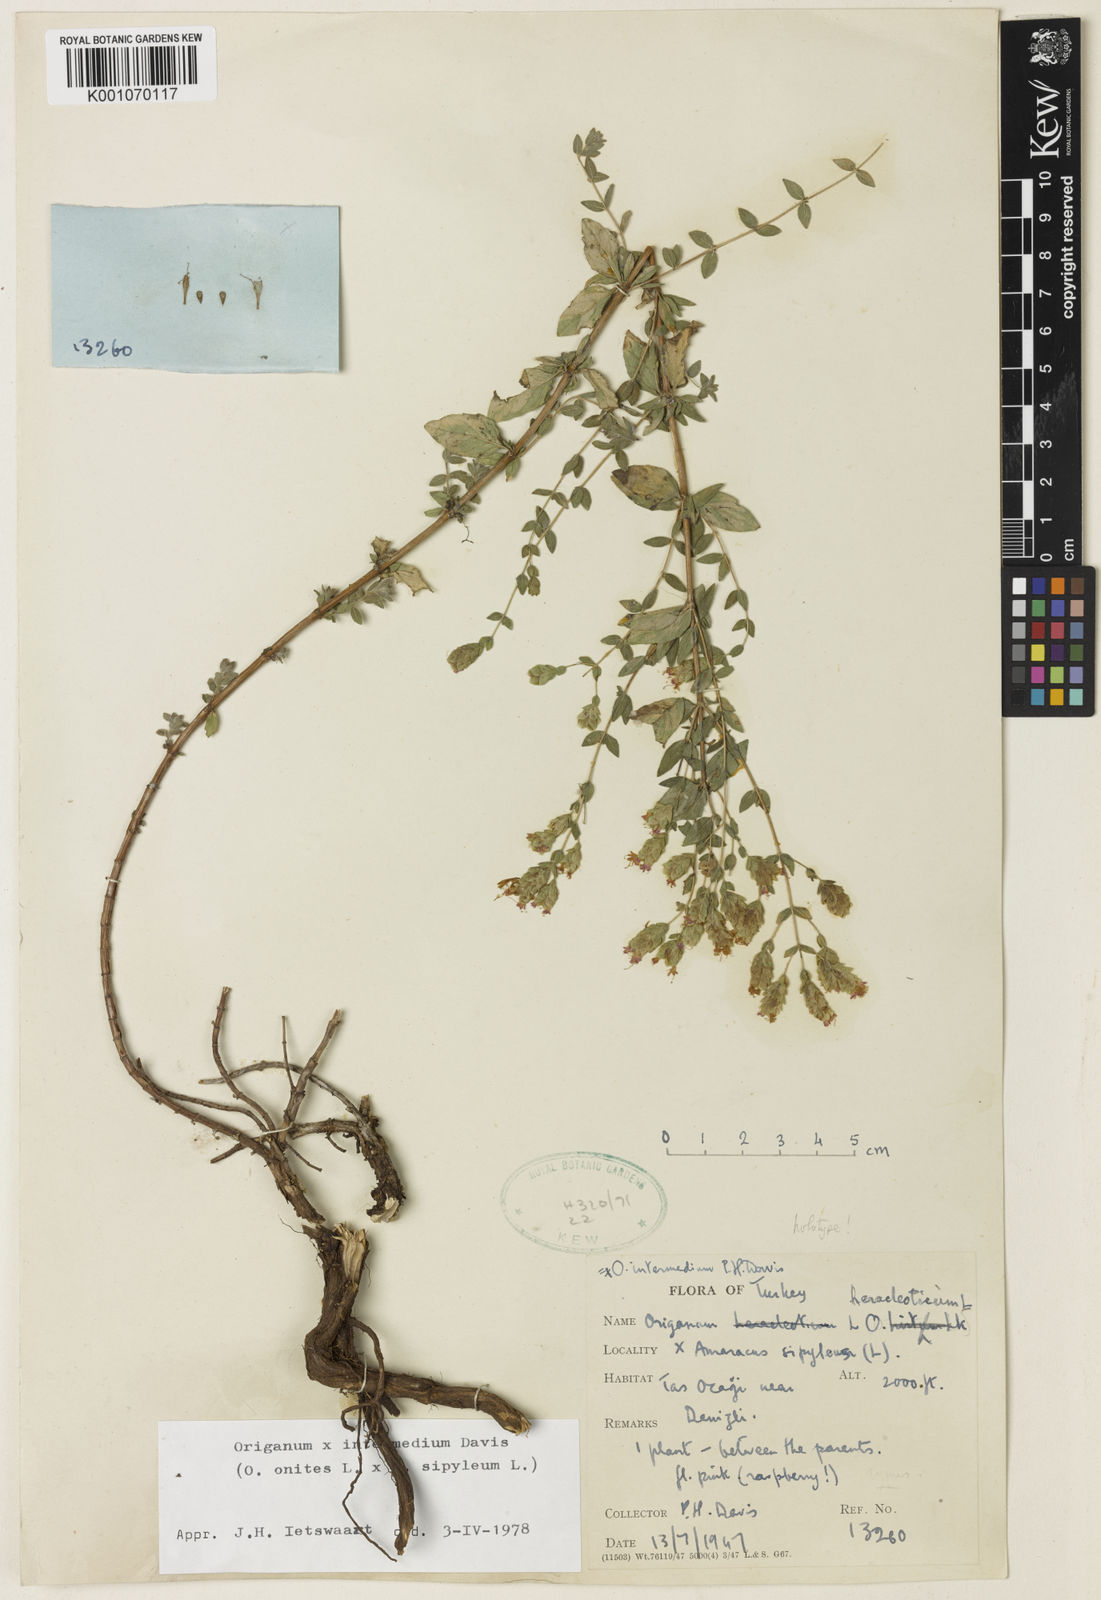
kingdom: Plantae
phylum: Tracheophyta
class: Magnoliopsida
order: Lamiales
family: Lamiaceae
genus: Origanum
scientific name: Origanum intermedium
